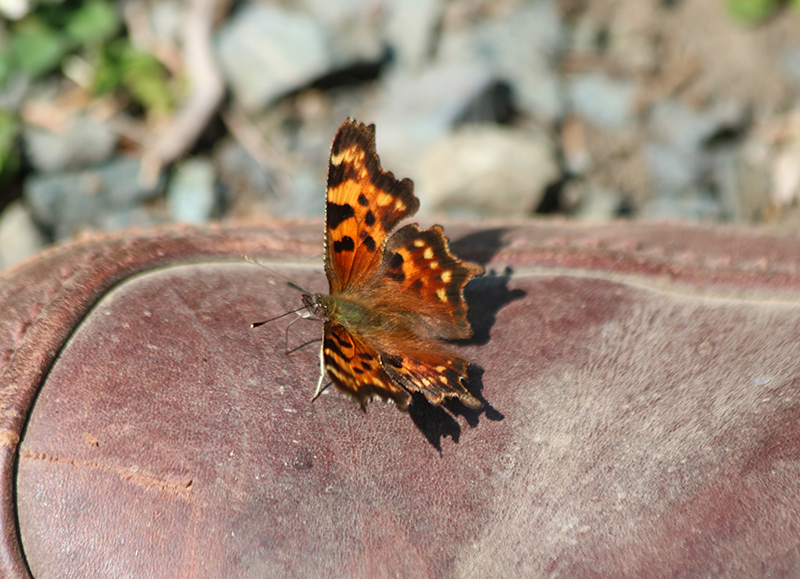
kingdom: Animalia
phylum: Arthropoda
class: Insecta
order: Lepidoptera
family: Nymphalidae
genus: Polygonia
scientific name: Polygonia faunus
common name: Green Comma
